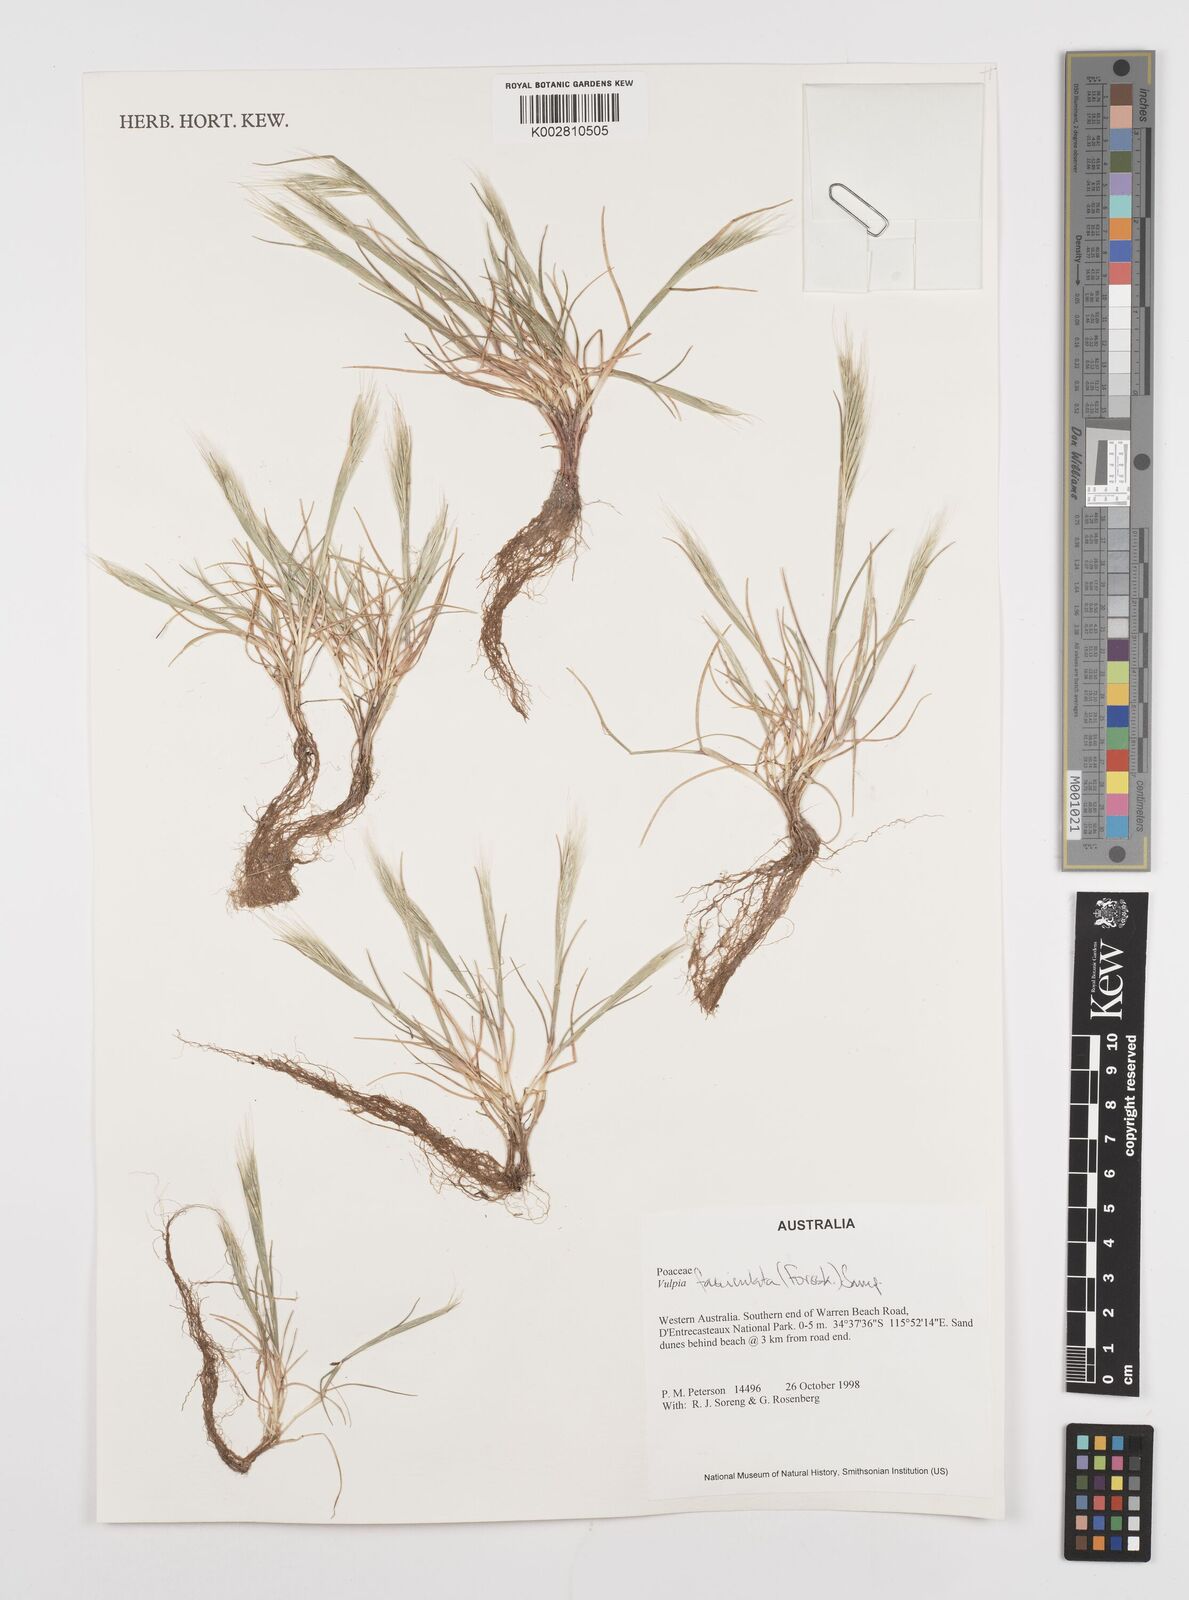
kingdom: Plantae
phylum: Tracheophyta
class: Liliopsida
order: Poales
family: Poaceae
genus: Festuca
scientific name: Festuca fasciculata
